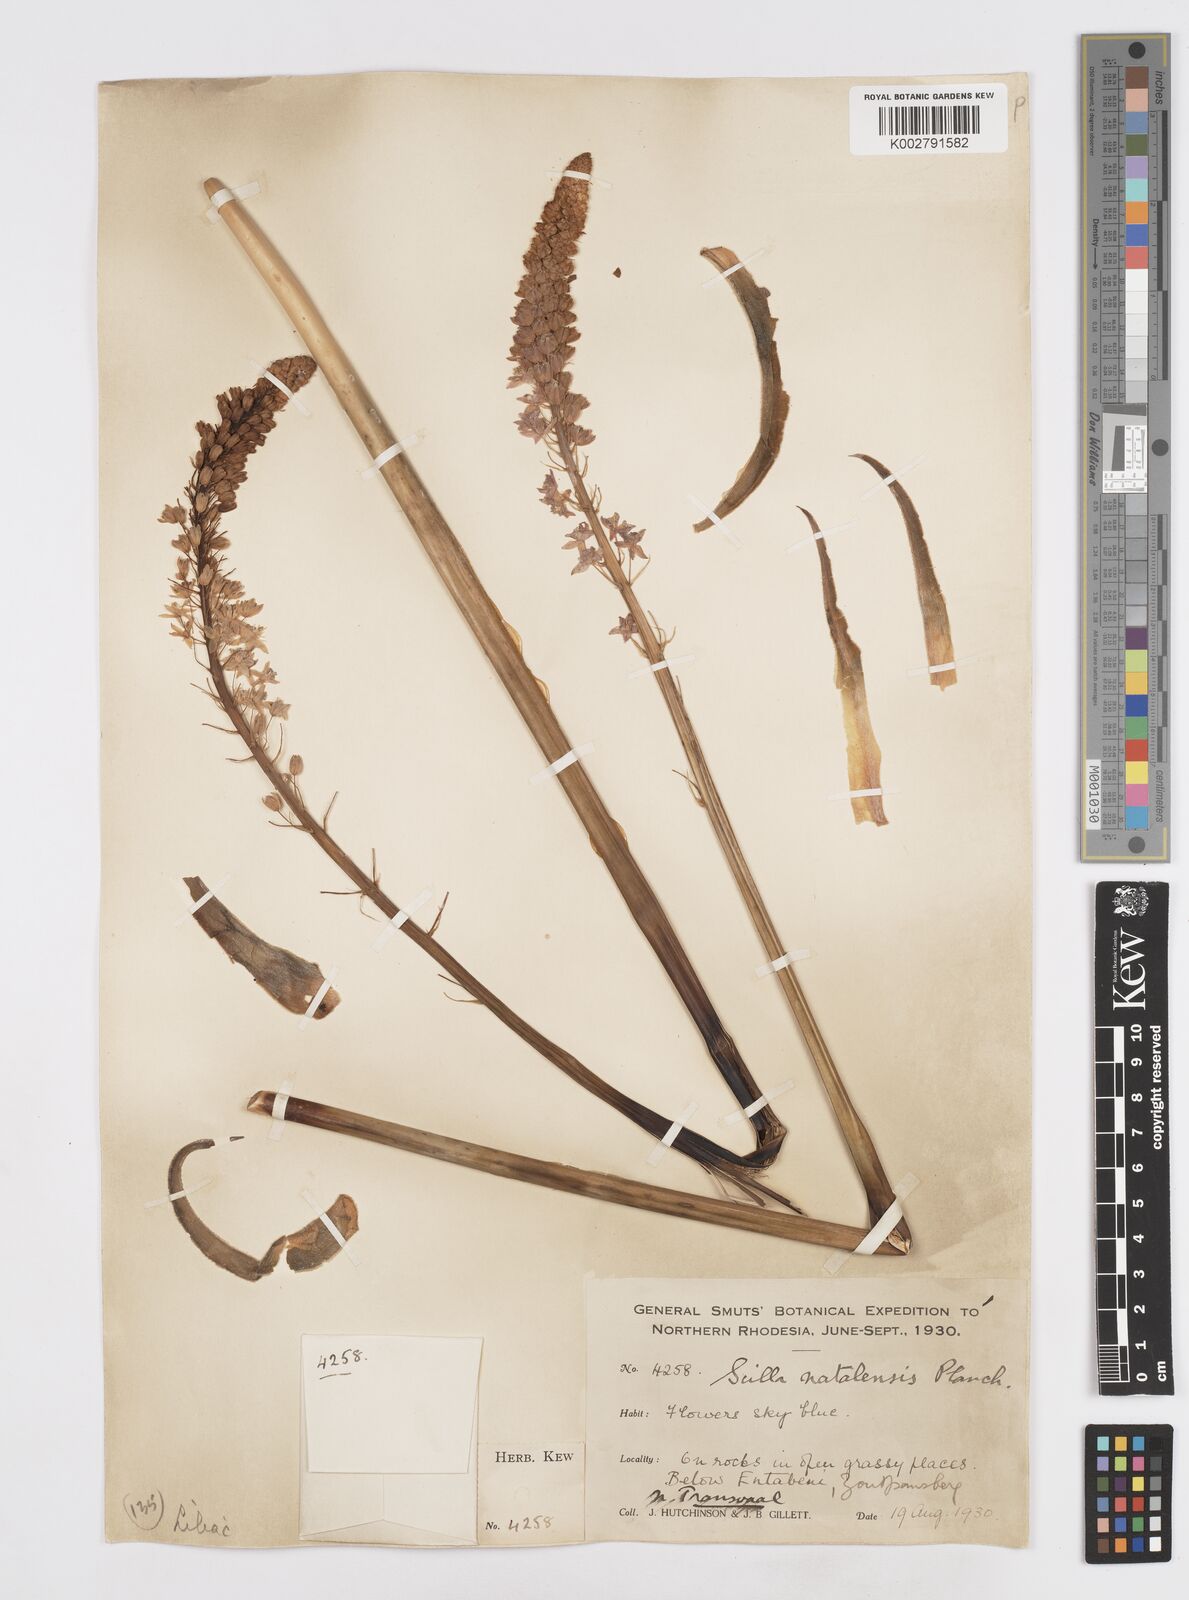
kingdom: Plantae
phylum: Tracheophyta
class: Liliopsida
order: Asparagales
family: Asparagaceae
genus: Merwilla
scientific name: Merwilla plumbea
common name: Blue-squill
